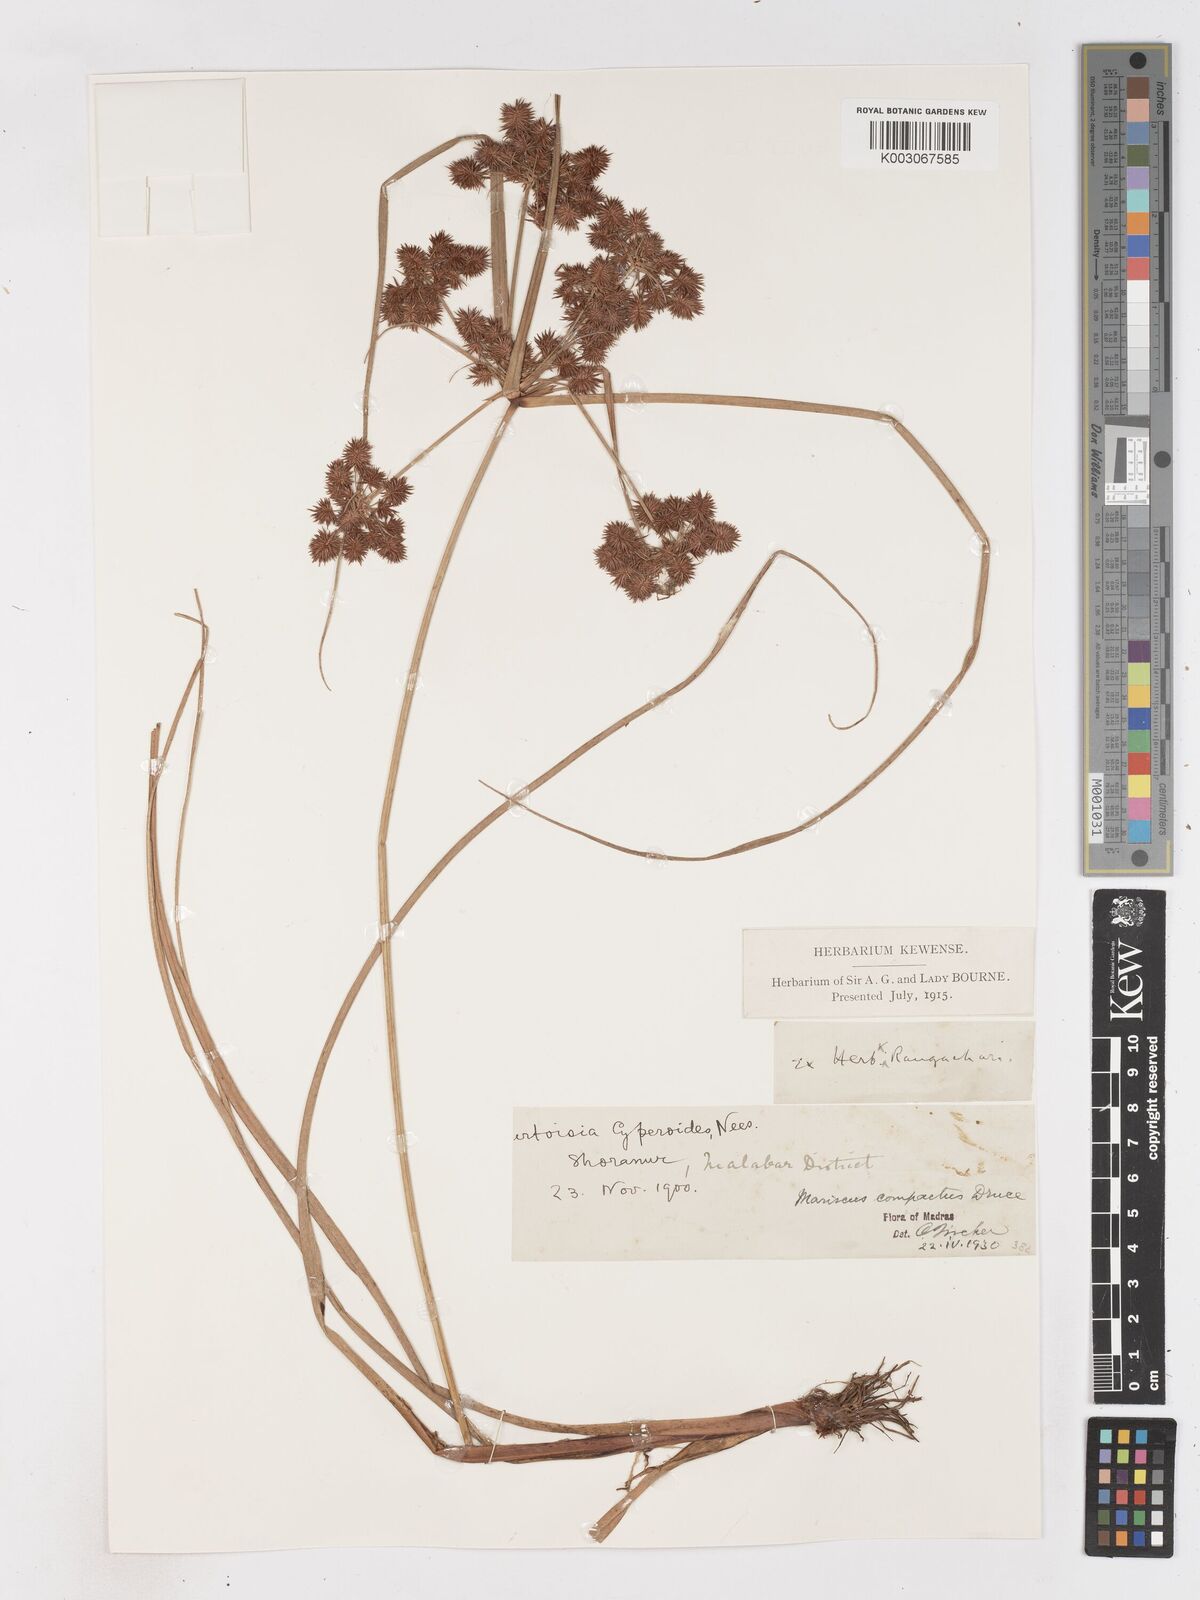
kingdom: Plantae
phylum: Tracheophyta
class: Liliopsida
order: Poales
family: Cyperaceae
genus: Cyperus
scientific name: Cyperus compactus
